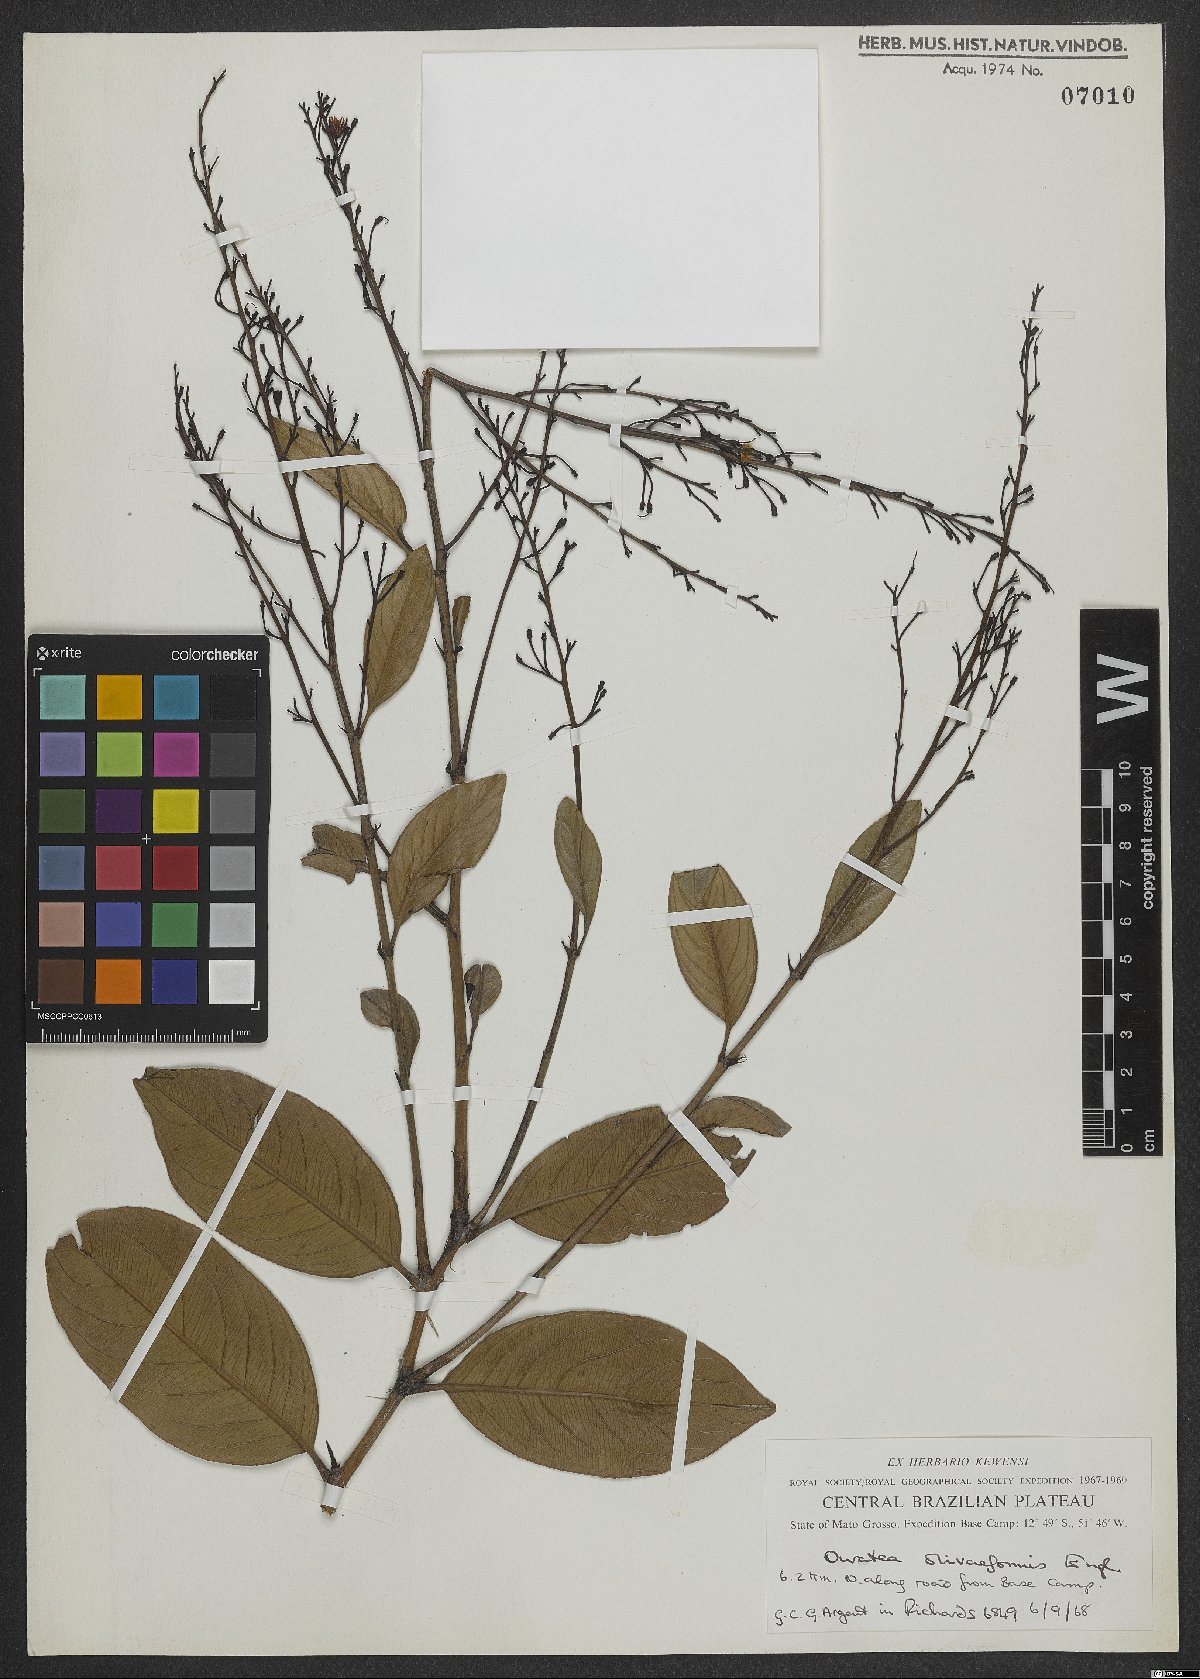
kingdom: Plantae
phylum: Tracheophyta
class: Magnoliopsida
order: Malpighiales
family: Ochnaceae
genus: Ouratea
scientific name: Ouratea oliviformis
